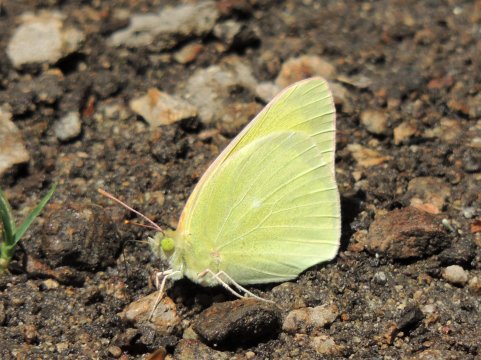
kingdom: Animalia
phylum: Arthropoda
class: Insecta
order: Lepidoptera
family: Pieridae
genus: Colias
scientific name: Colias alexandra
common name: Queen Alexandra's Sulphur
